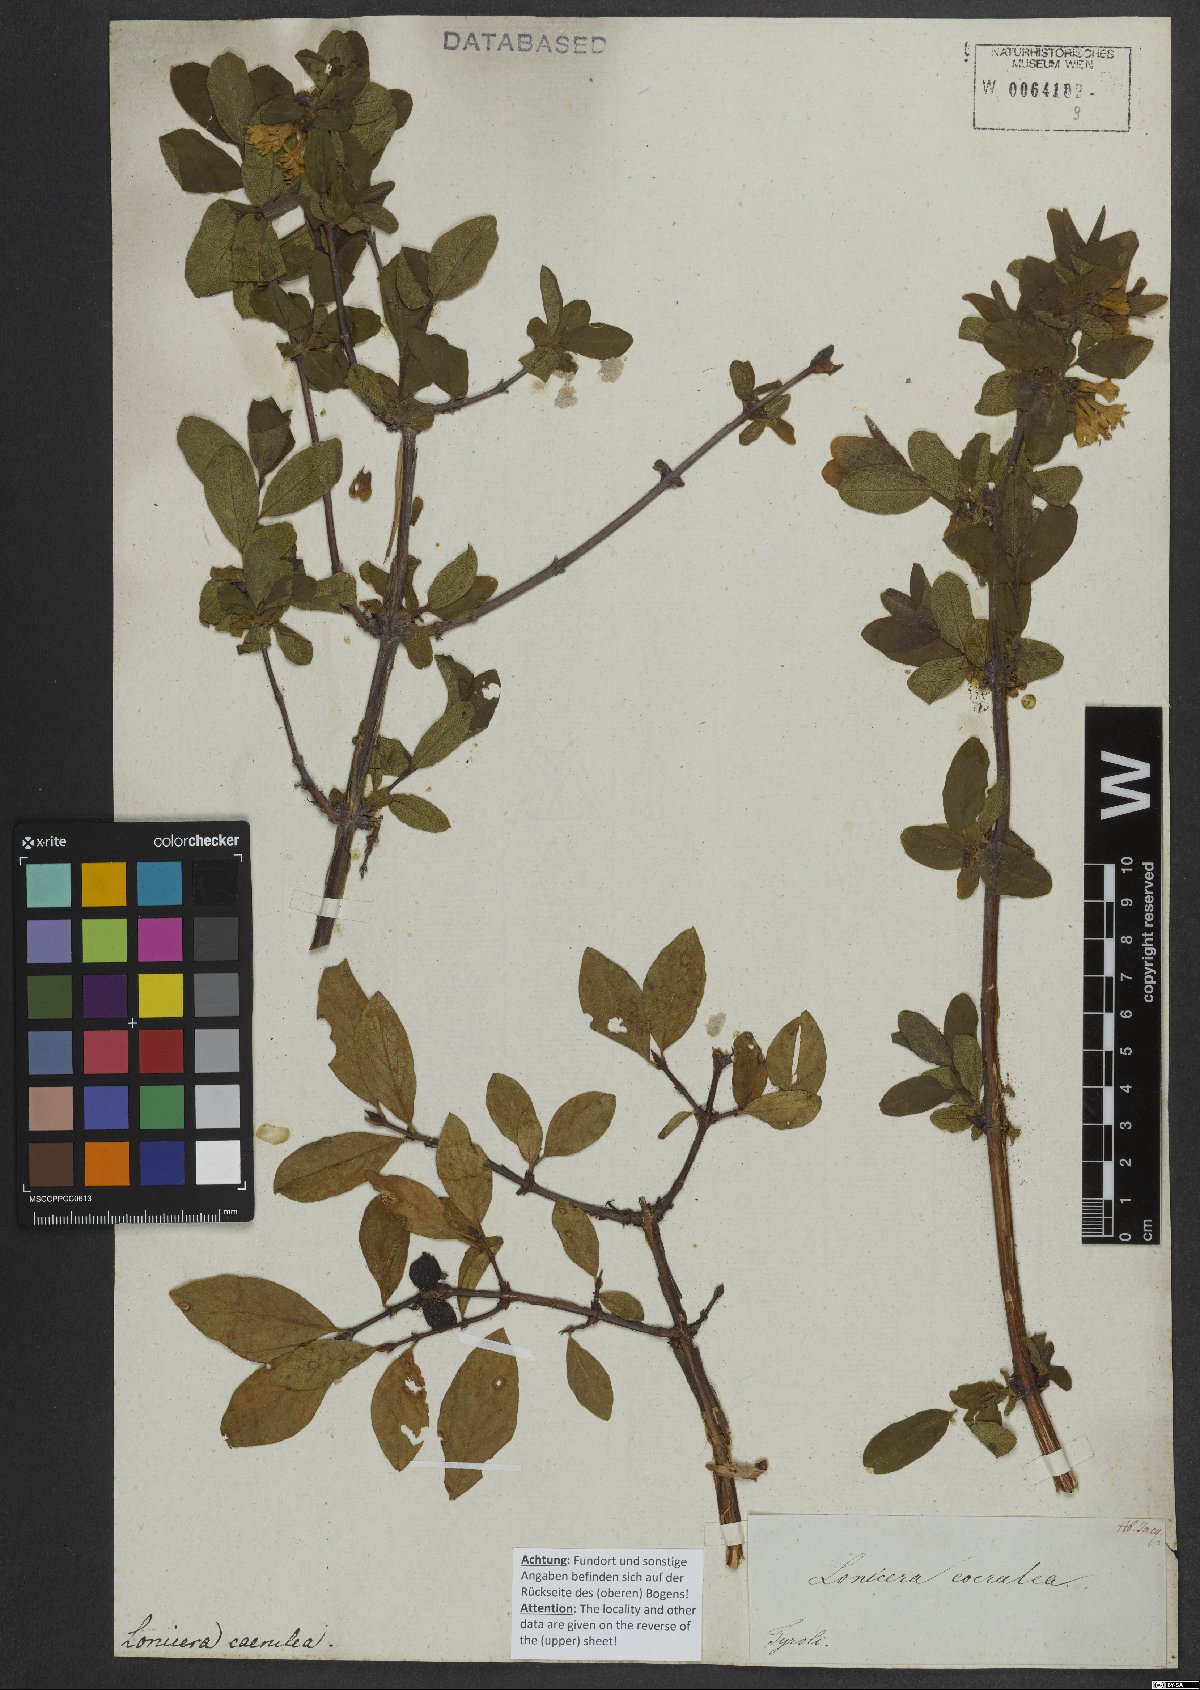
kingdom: Plantae
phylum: Tracheophyta
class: Magnoliopsida
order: Dipsacales
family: Caprifoliaceae
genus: Lonicera
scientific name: Lonicera caerulea
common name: Blue honeysuckle
